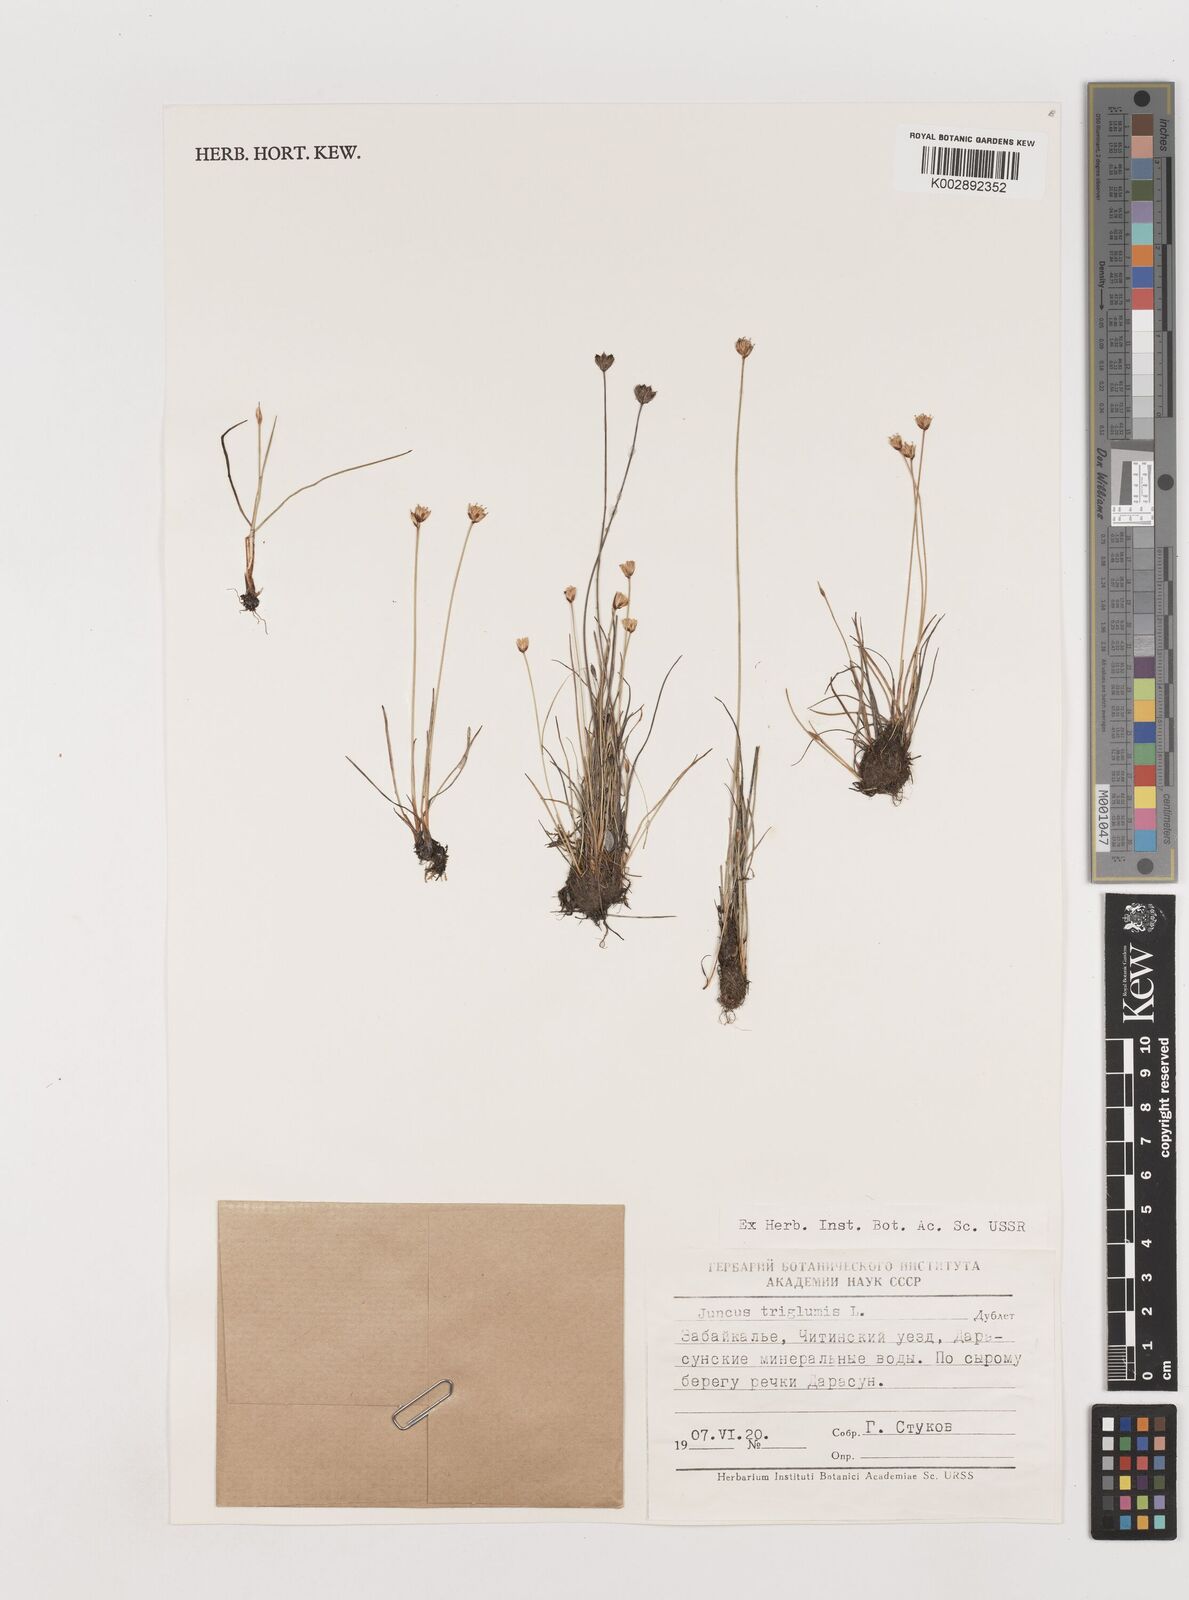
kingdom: Plantae
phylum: Tracheophyta
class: Liliopsida
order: Poales
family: Juncaceae
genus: Juncus
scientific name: Juncus triglumis
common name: Three-flowered rush
